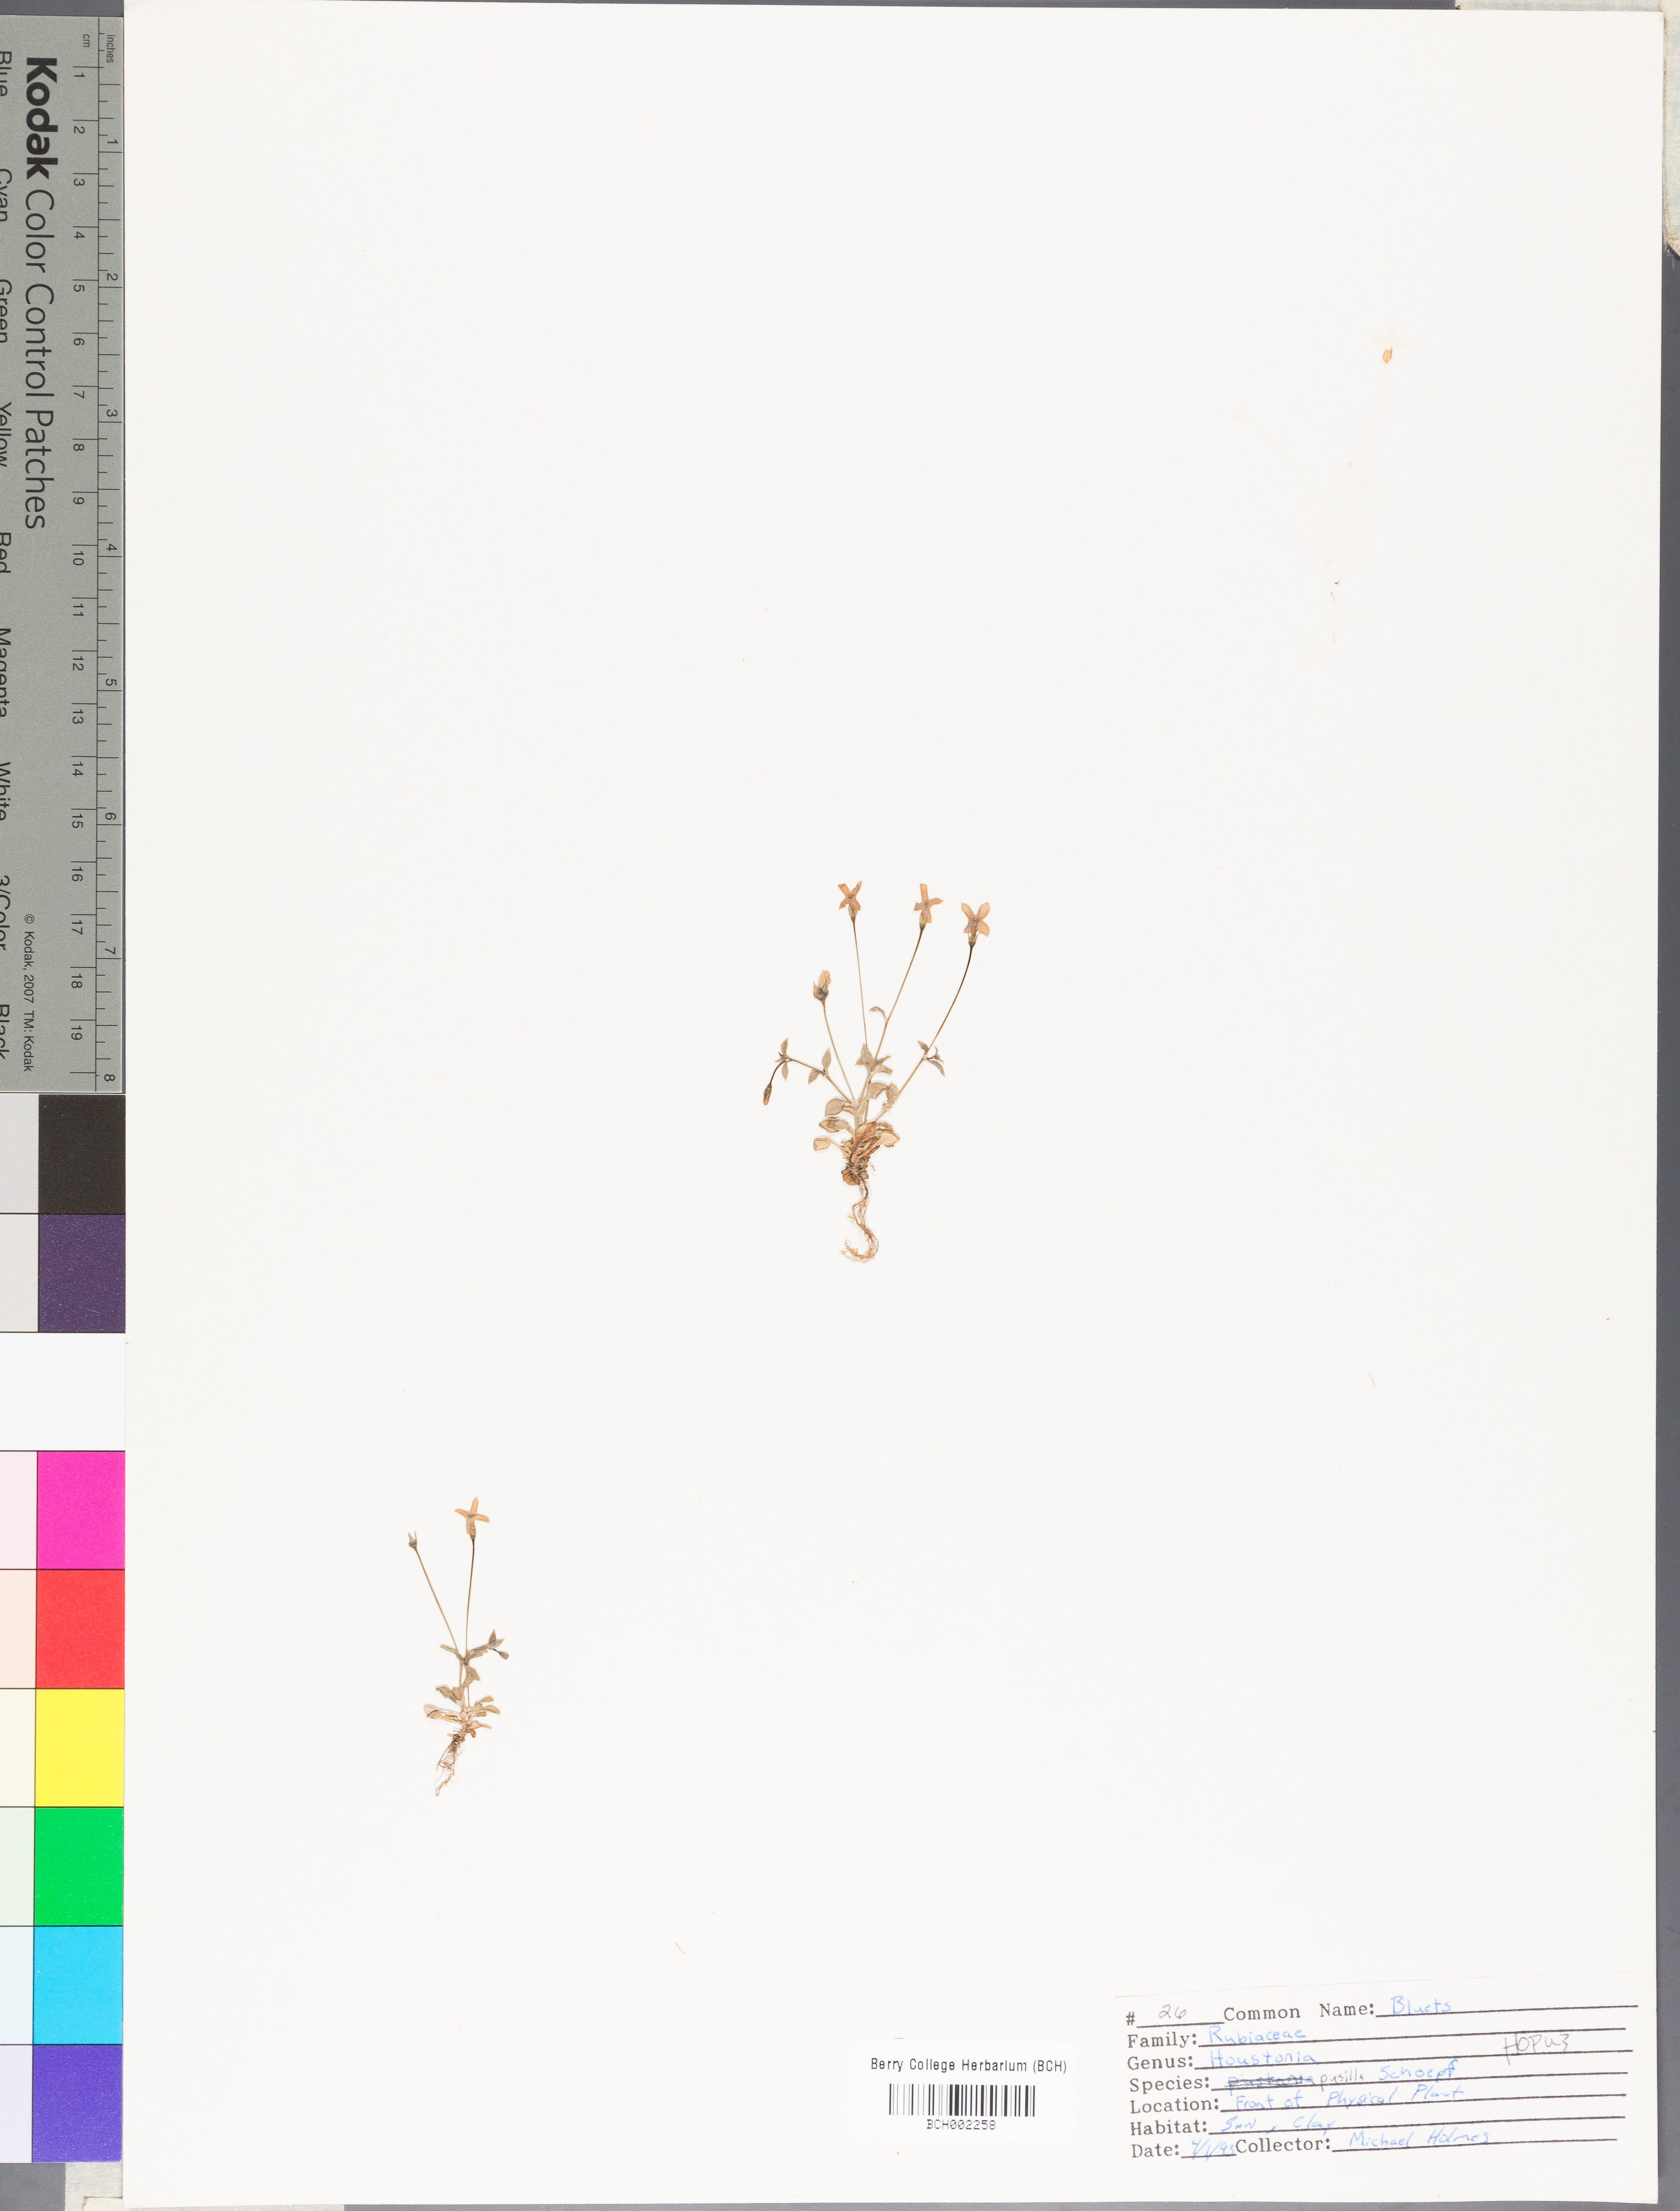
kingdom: Plantae
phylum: Tracheophyta
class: Magnoliopsida
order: Gentianales
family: Rubiaceae
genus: Houstonia
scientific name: Houstonia pusilla
